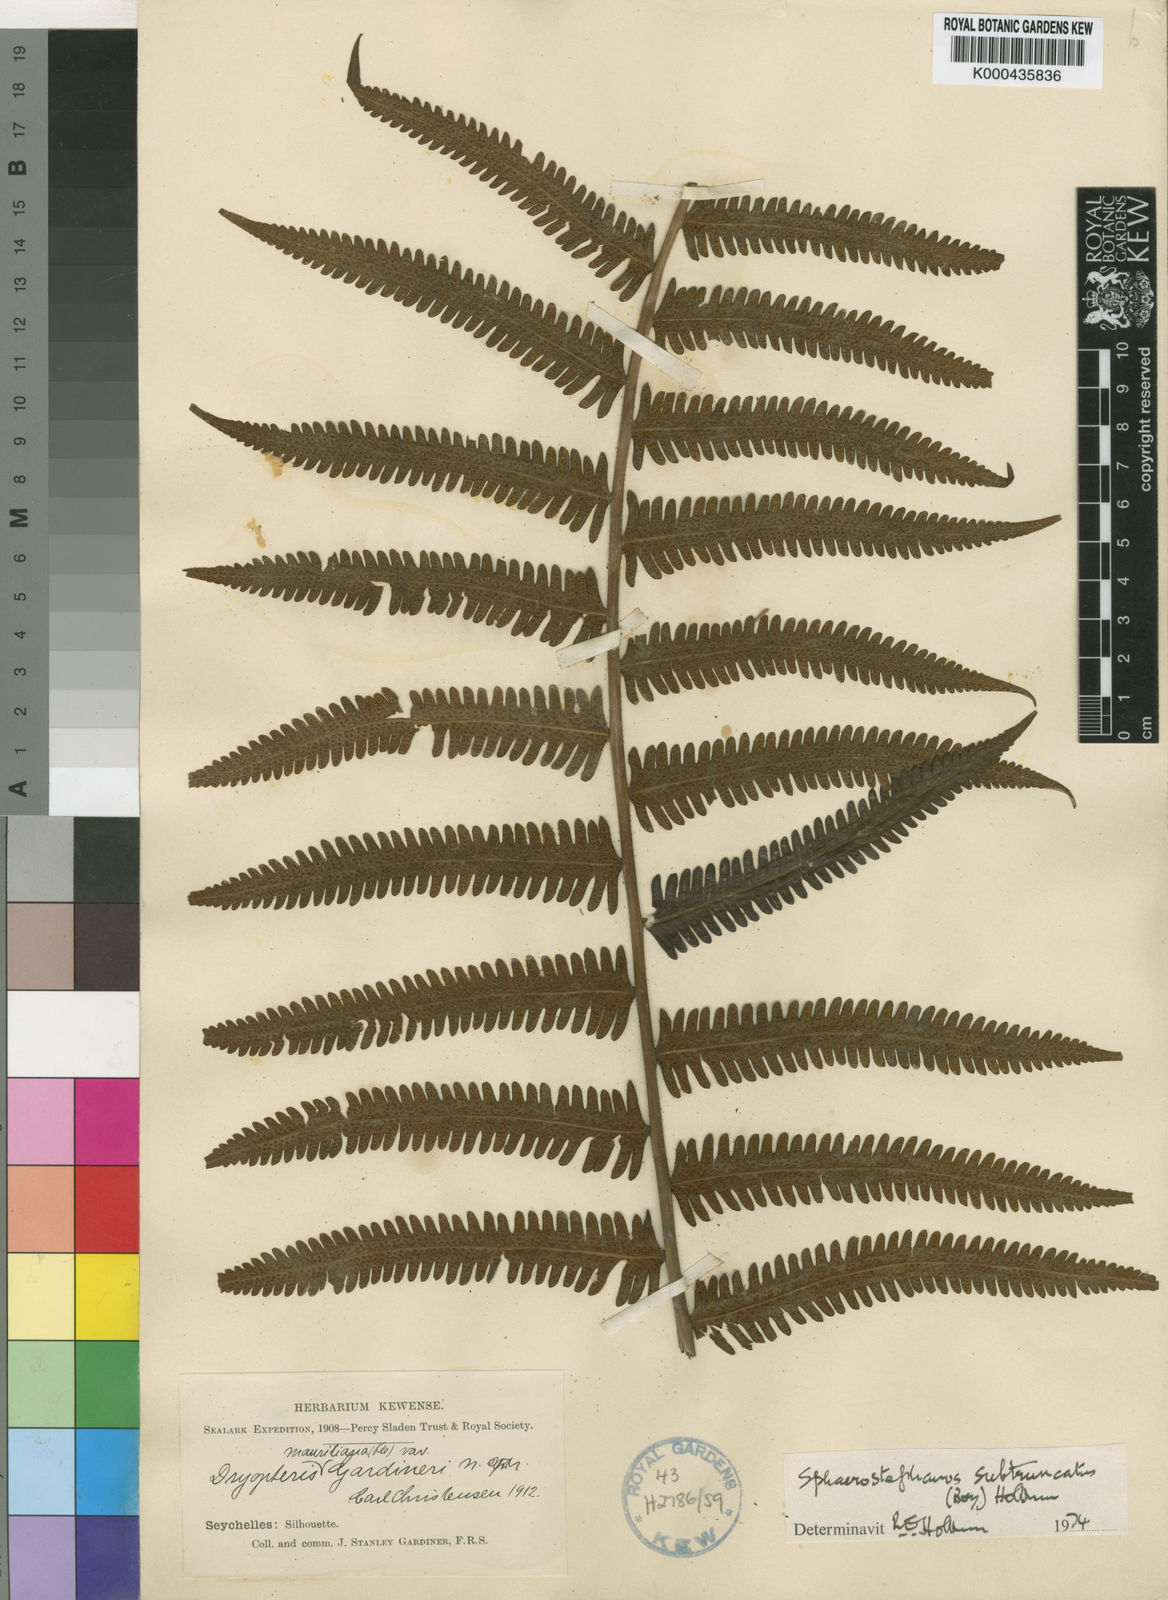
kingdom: Plantae
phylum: Tracheophyta
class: Polypodiopsida
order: Polypodiales
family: Thelypteridaceae
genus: Sphaerostephanos
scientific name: Sphaerostephanos subtruncatus
